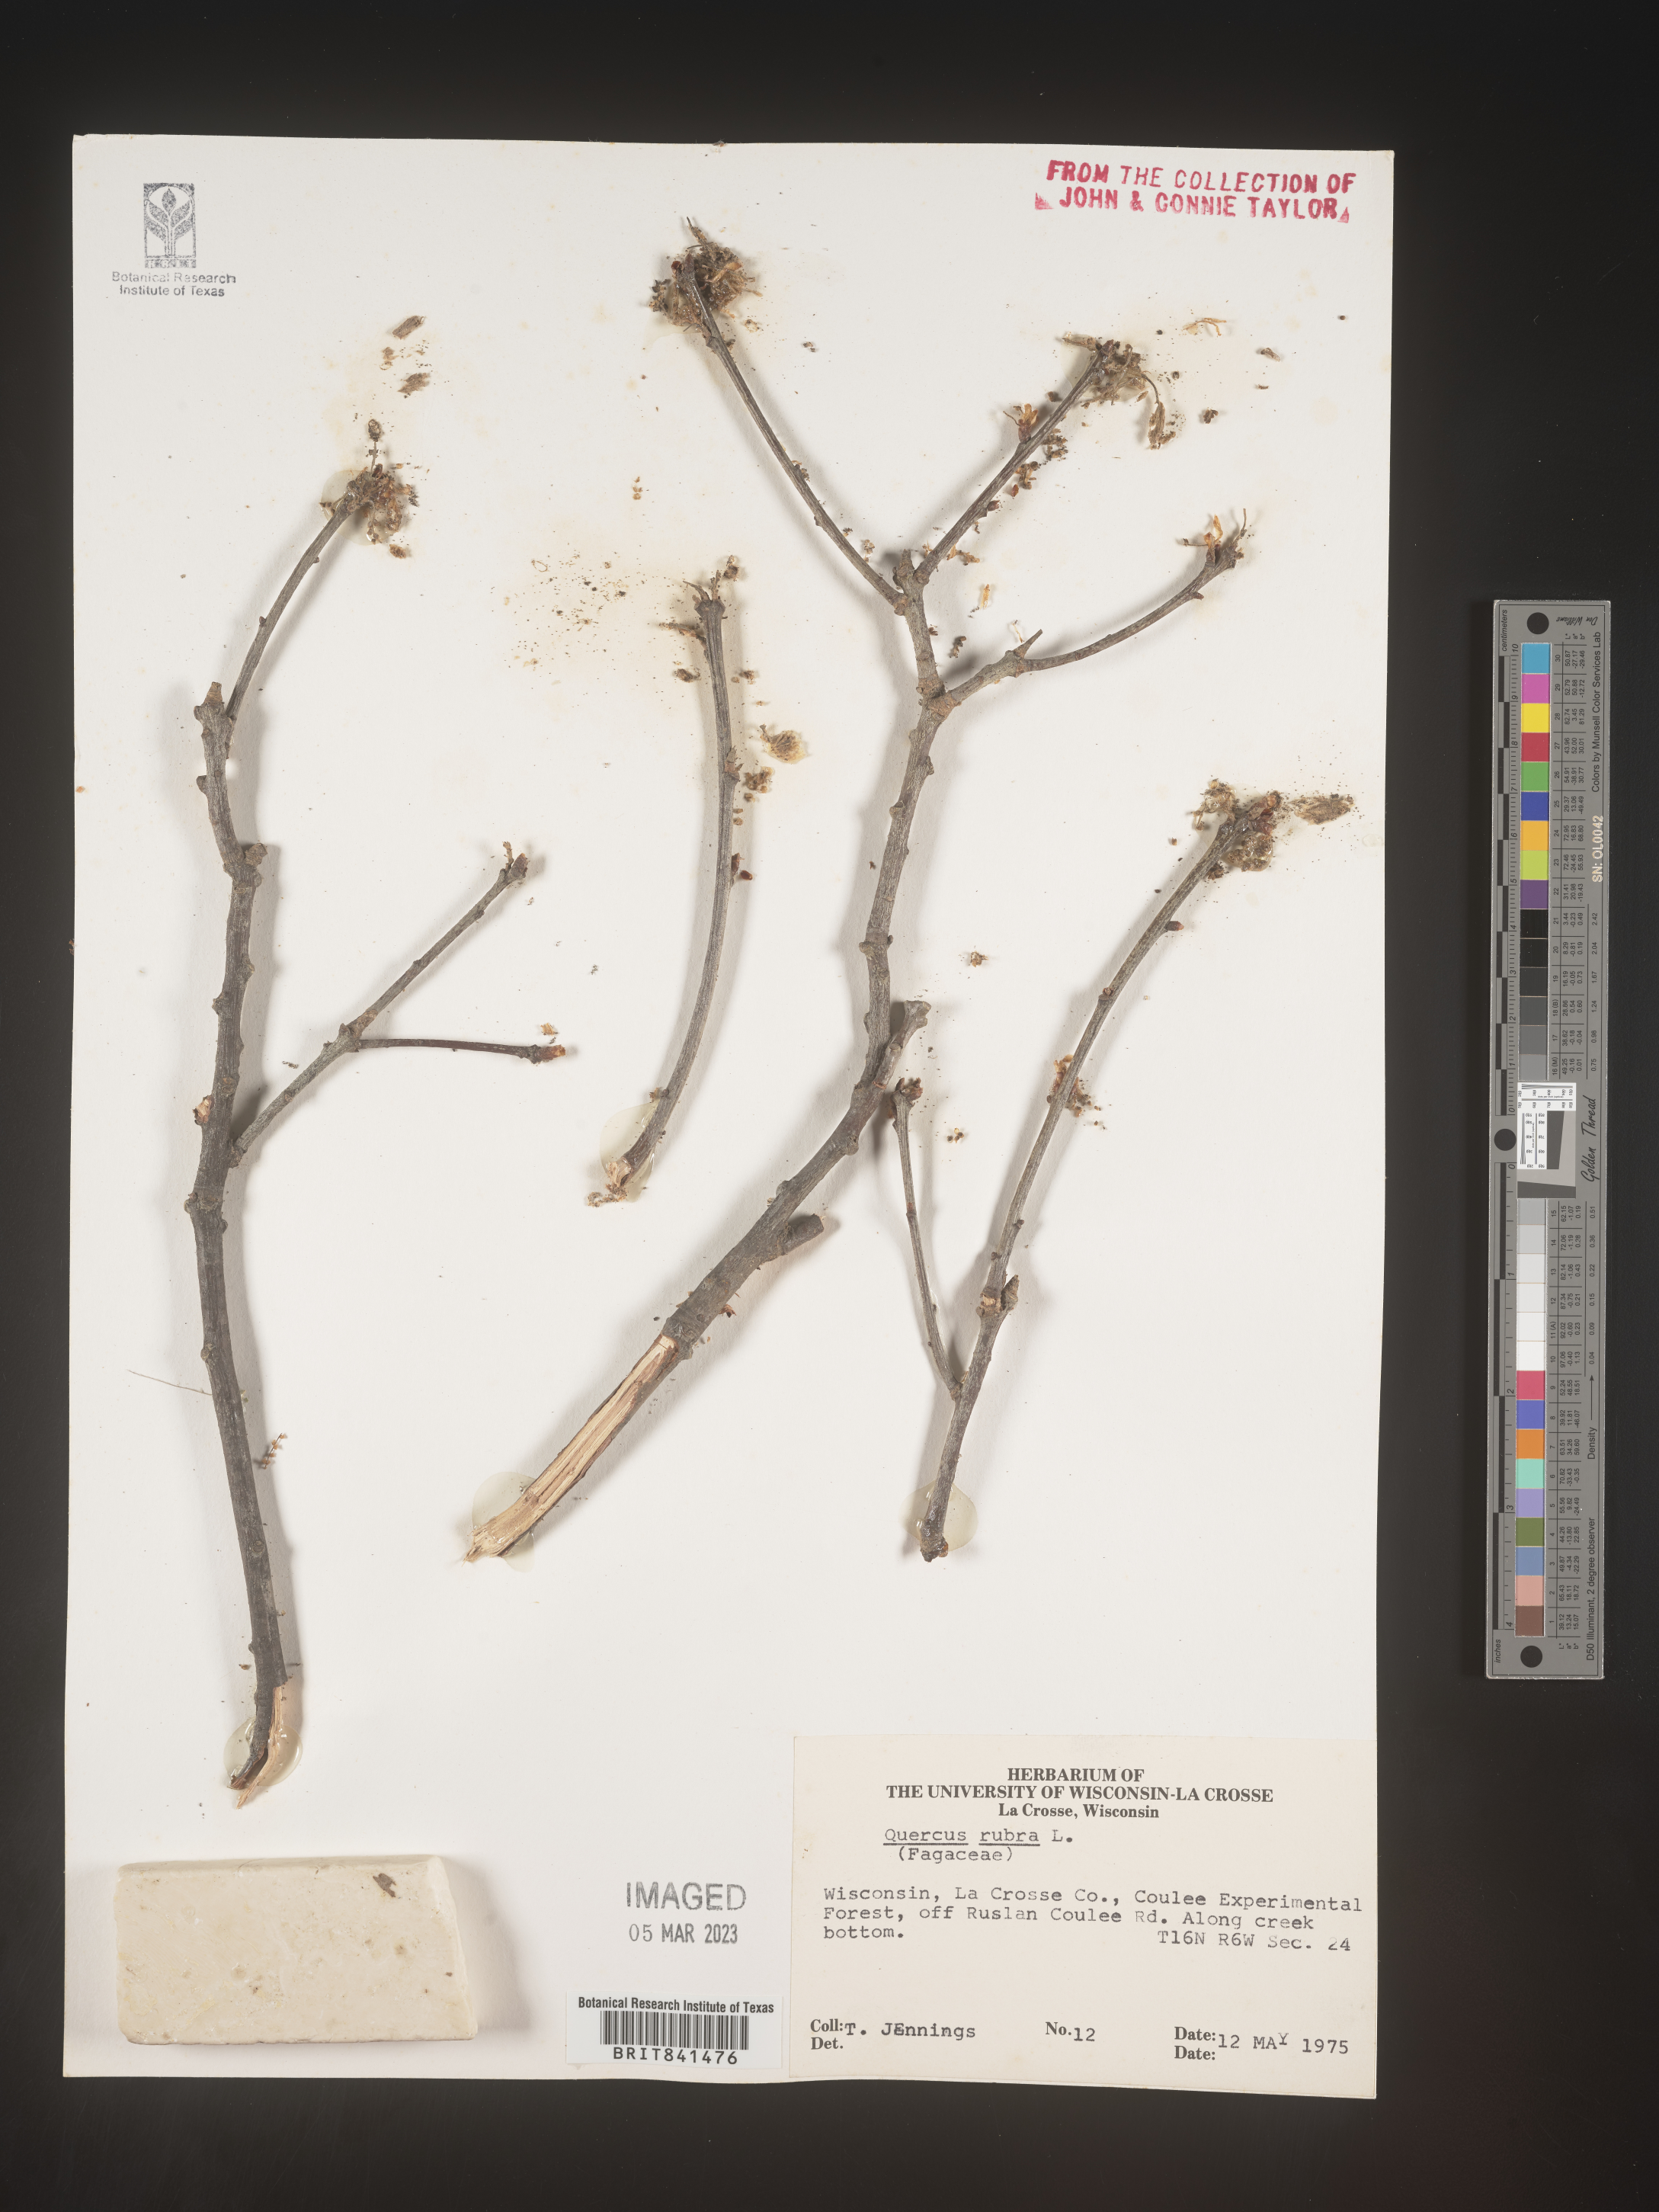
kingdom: Plantae
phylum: Tracheophyta
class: Magnoliopsida
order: Fagales
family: Fagaceae
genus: Quercus
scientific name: Quercus rubra
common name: Red oak
